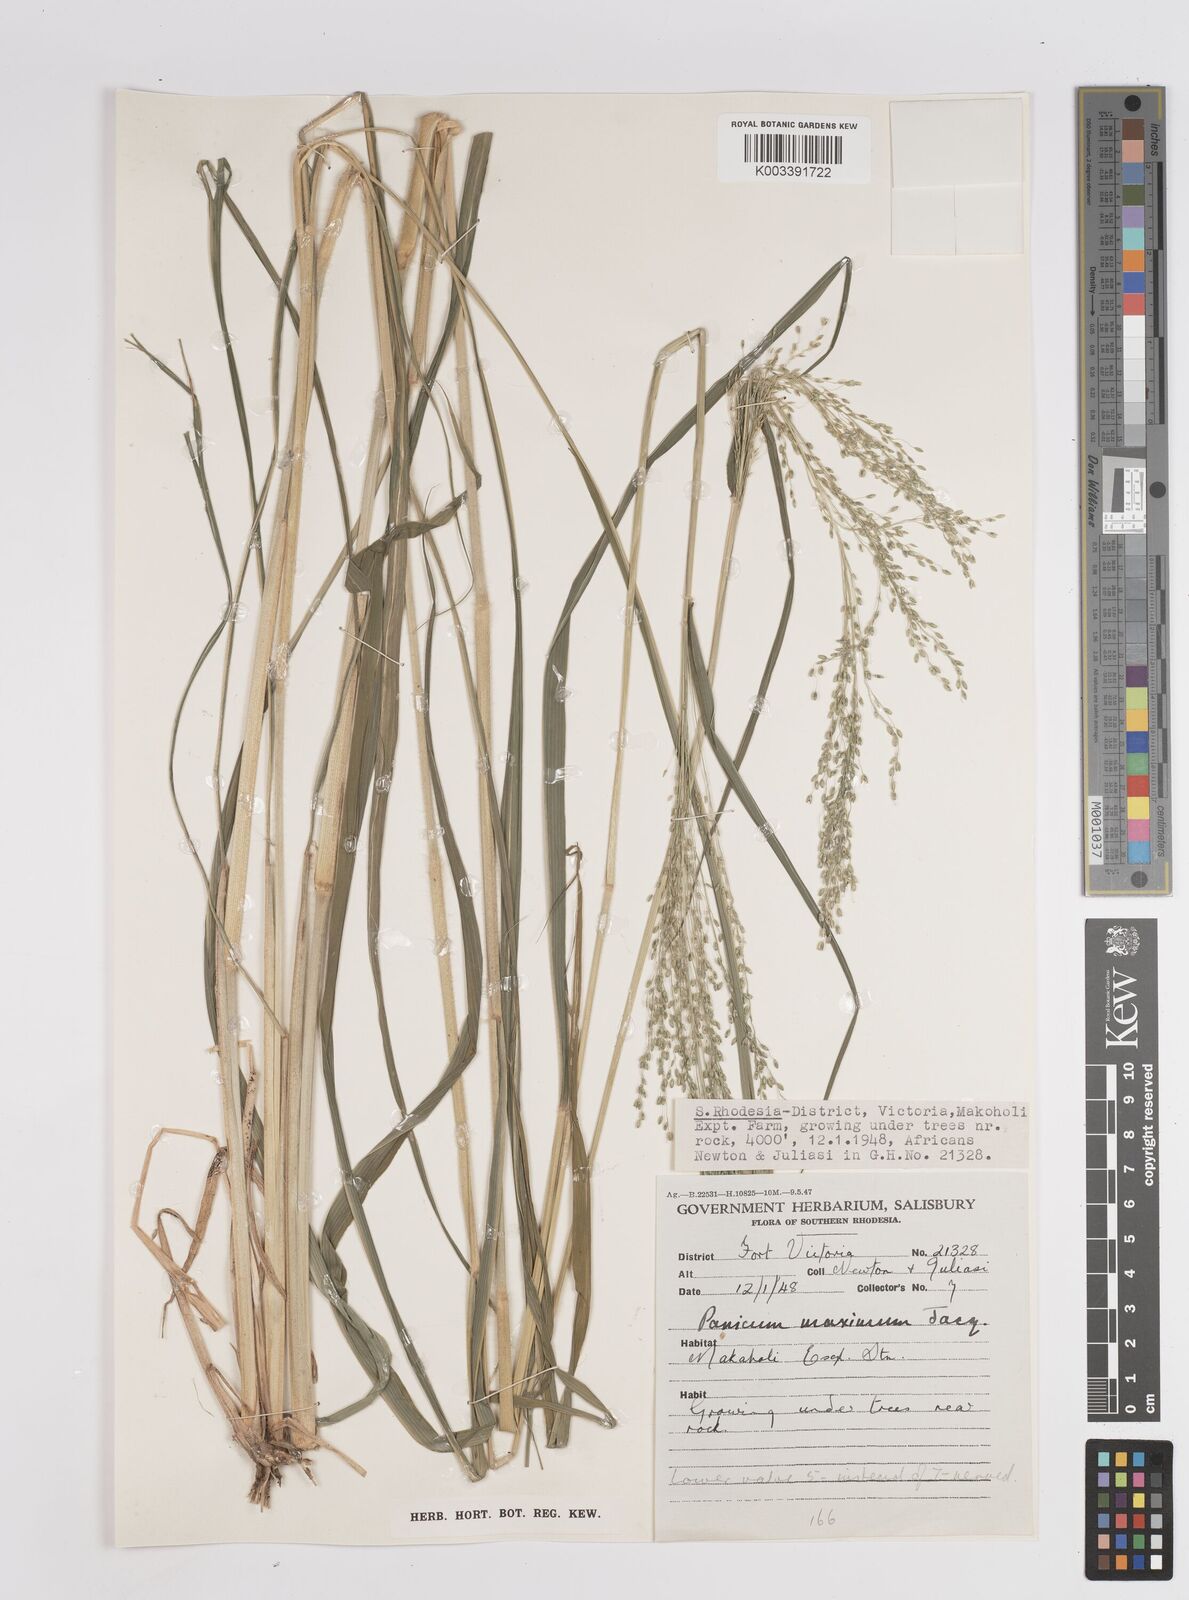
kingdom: Plantae
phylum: Tracheophyta
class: Liliopsida
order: Poales
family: Poaceae
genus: Megathyrsus
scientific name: Megathyrsus maximus
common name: Guineagrass
